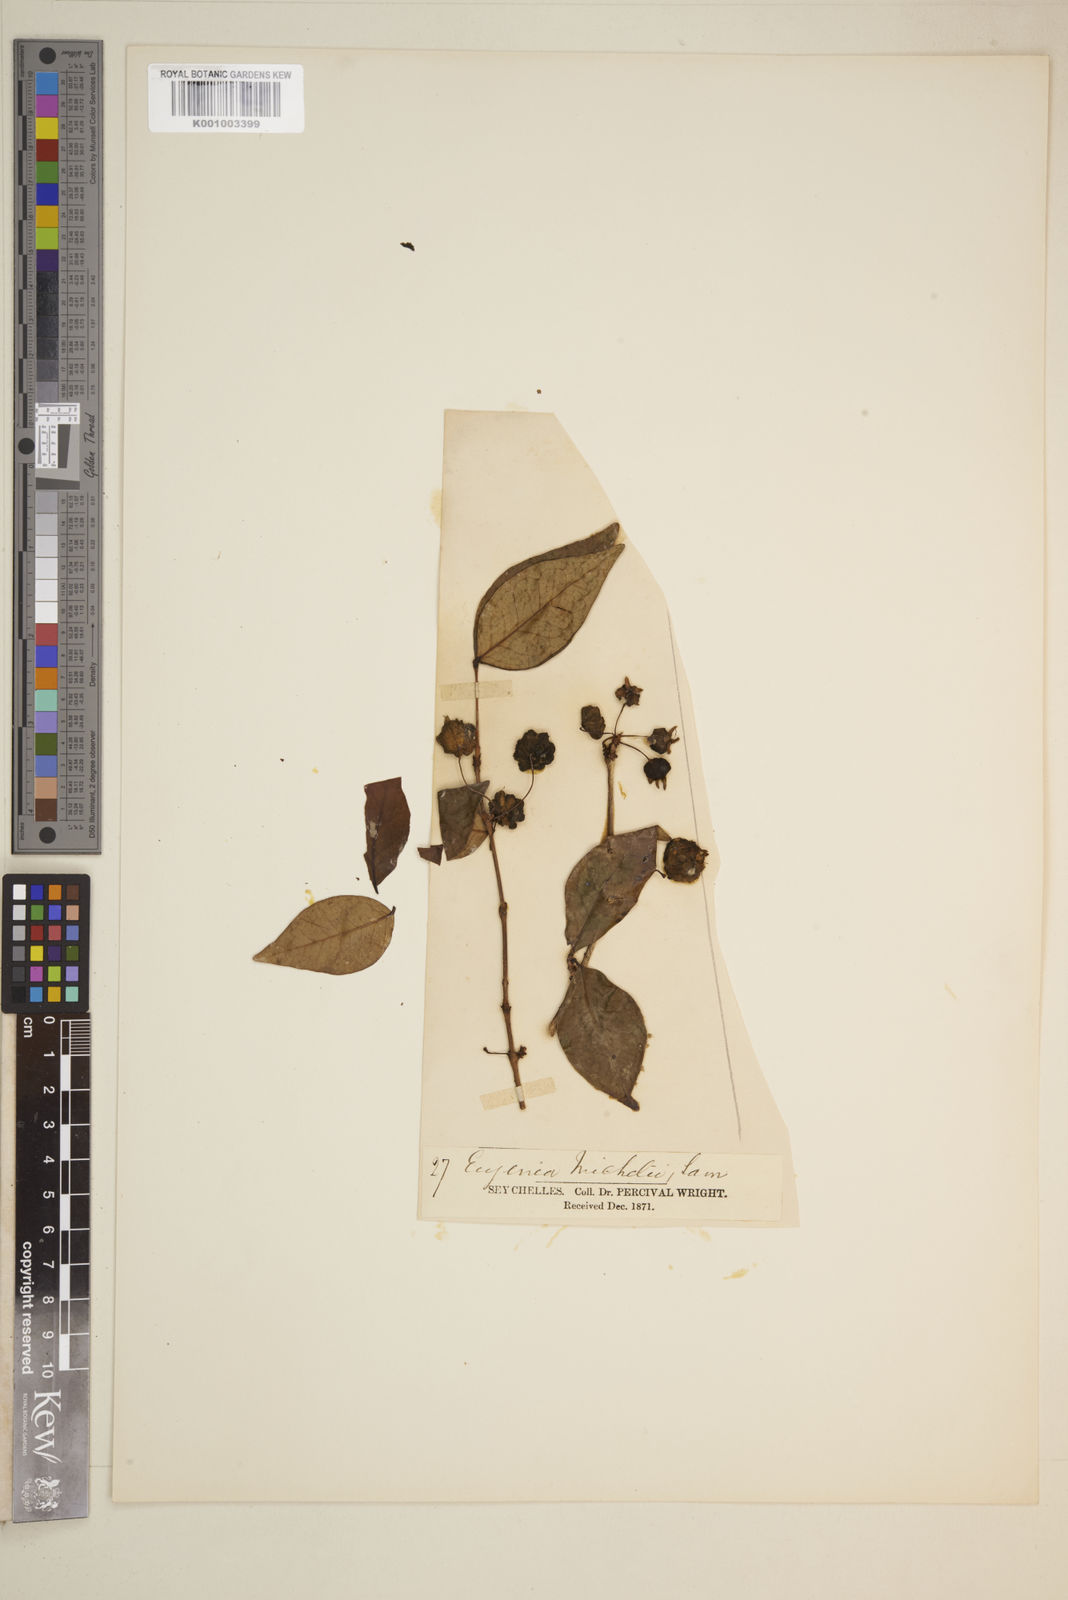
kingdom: Plantae
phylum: Tracheophyta
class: Magnoliopsida
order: Myrtales
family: Myrtaceae
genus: Eugenia
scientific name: Eugenia uniflora
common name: Surinam cherry
